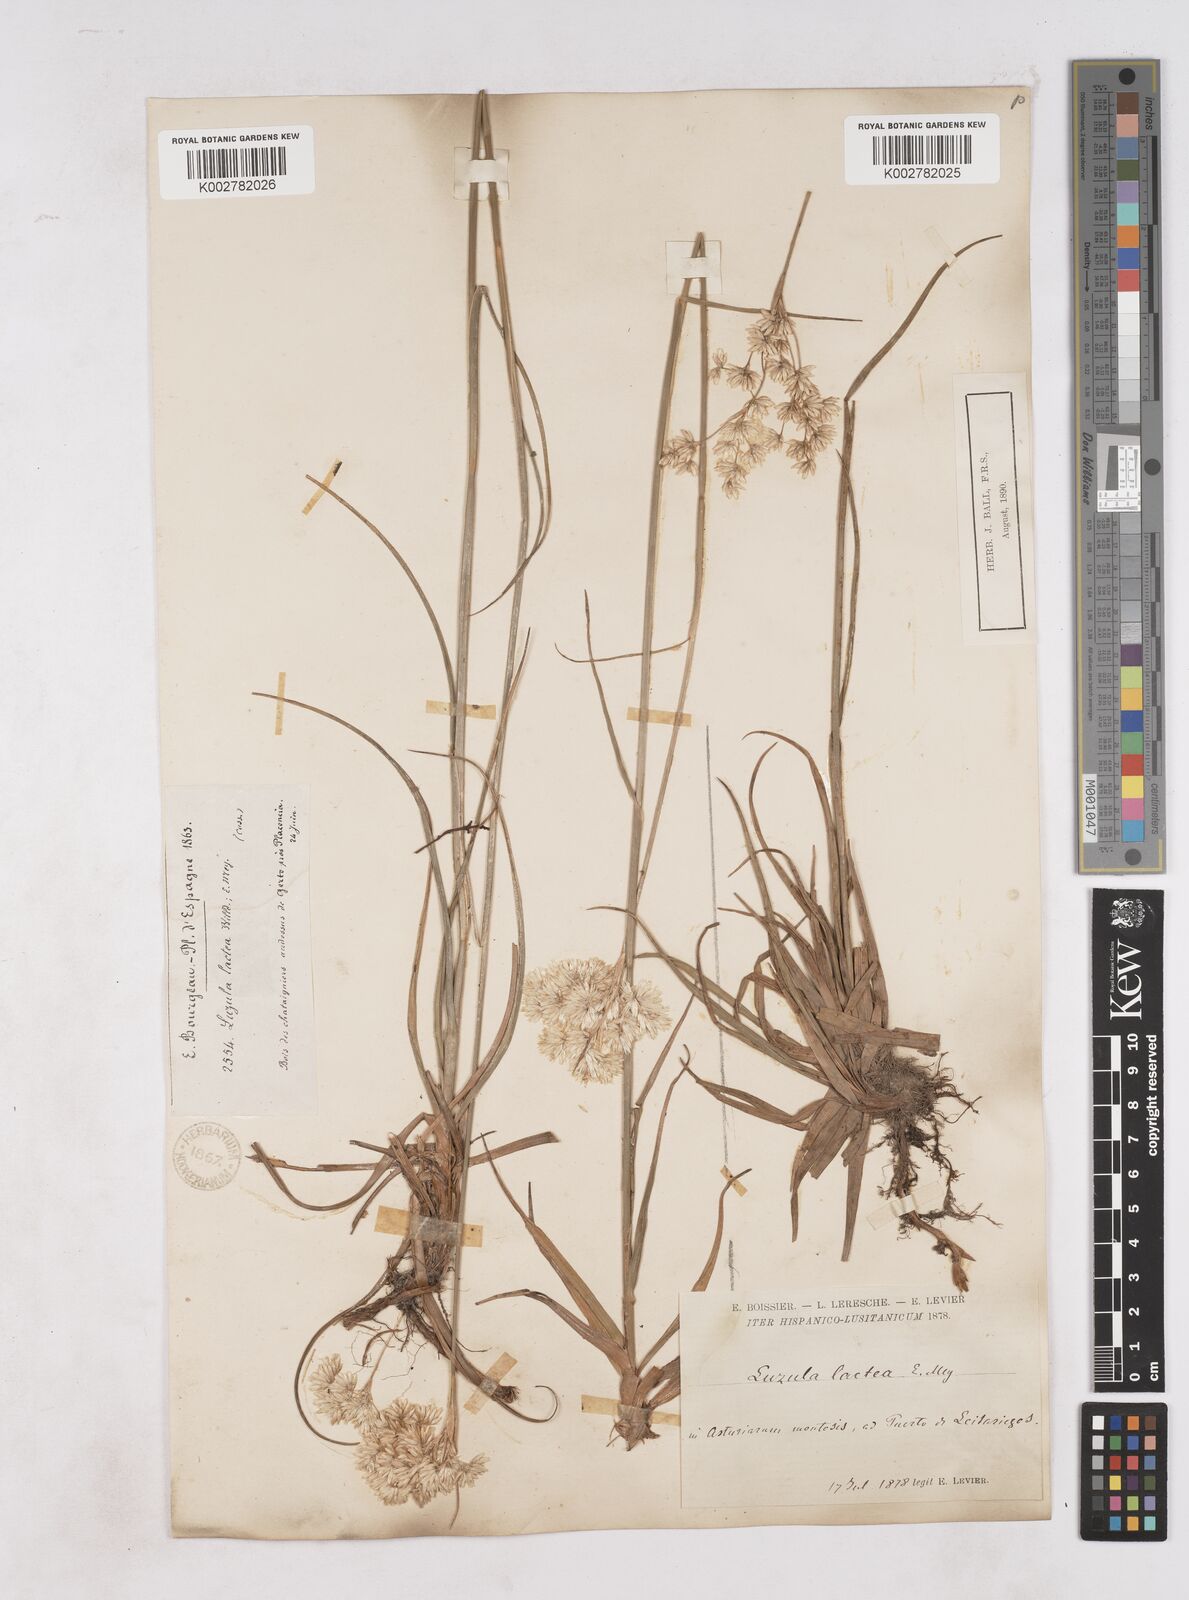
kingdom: Plantae
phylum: Tracheophyta
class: Liliopsida
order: Poales
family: Juncaceae
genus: Luzula
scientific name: Luzula lactea
